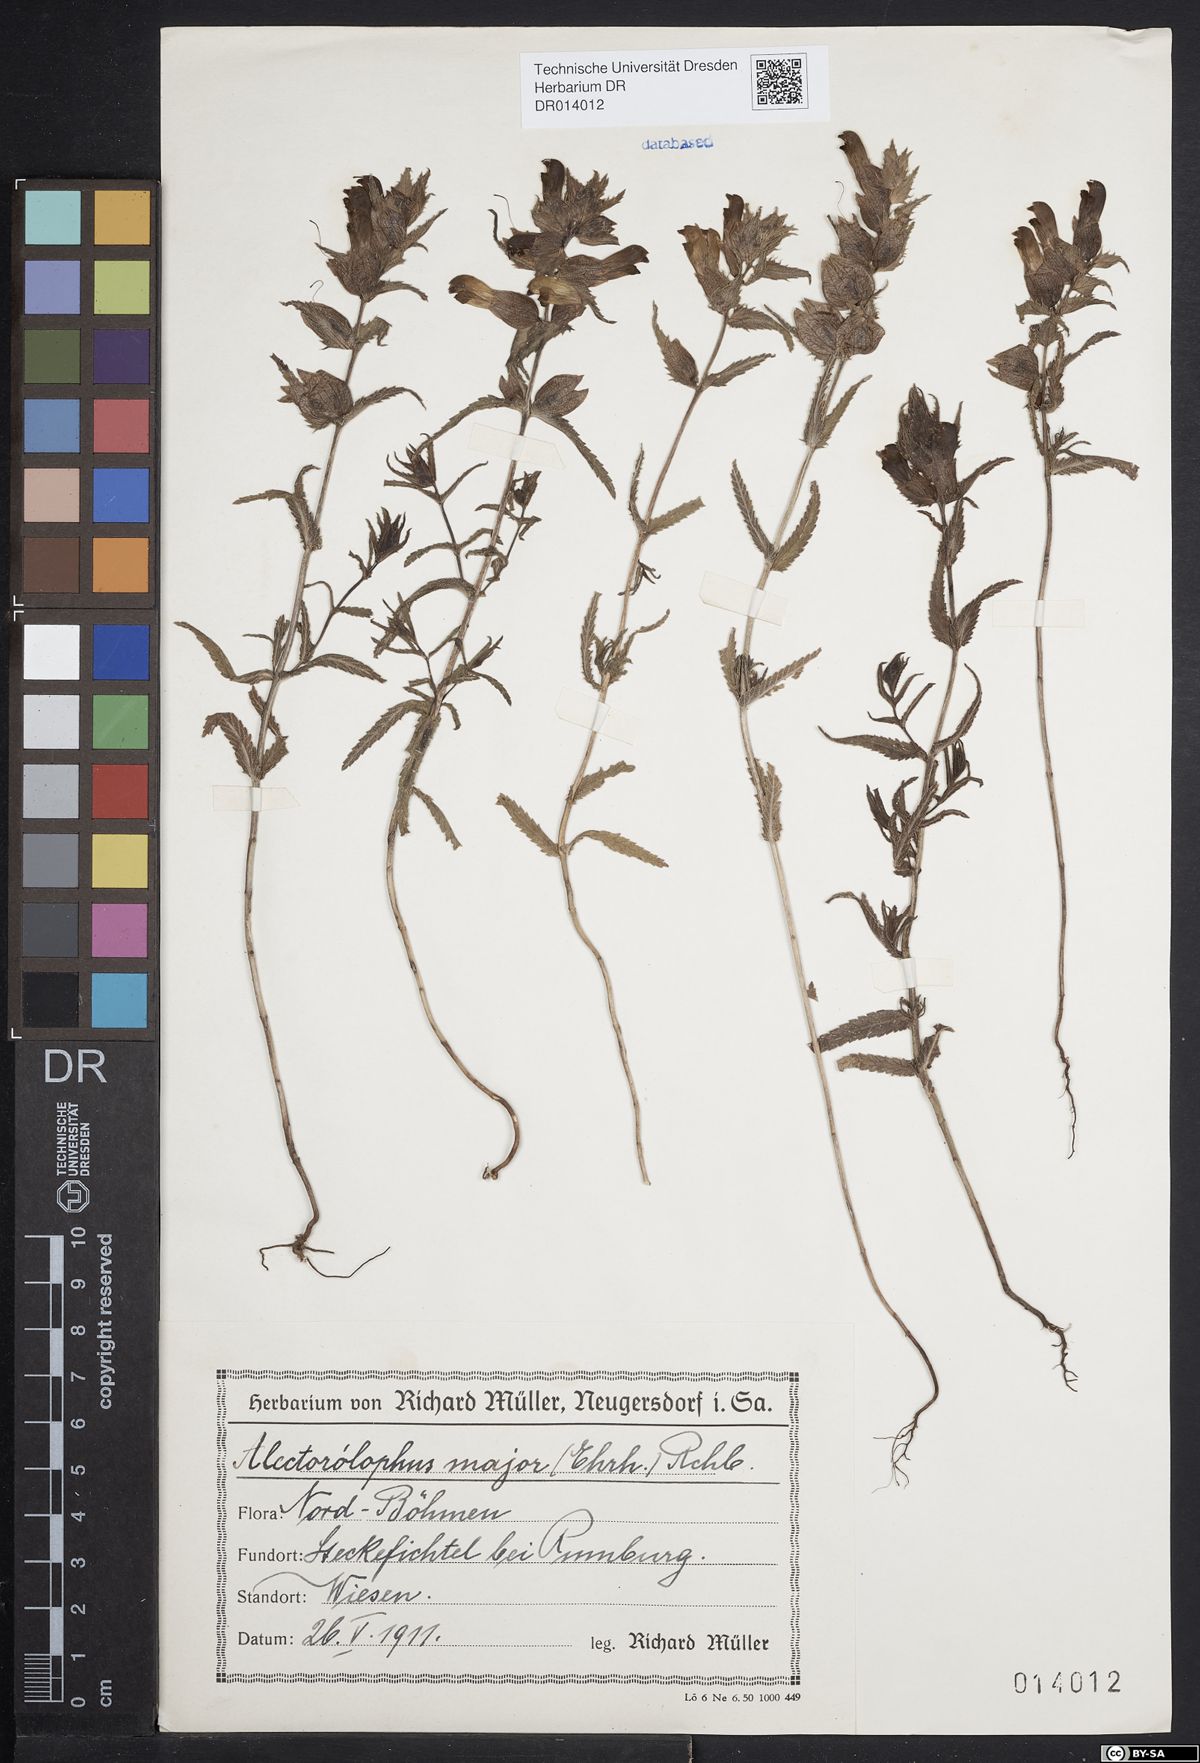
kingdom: Plantae
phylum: Tracheophyta
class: Magnoliopsida
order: Lamiales
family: Orobanchaceae
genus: Rhinanthus
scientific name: Rhinanthus serotinus
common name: Late-flowering yellow rattle
